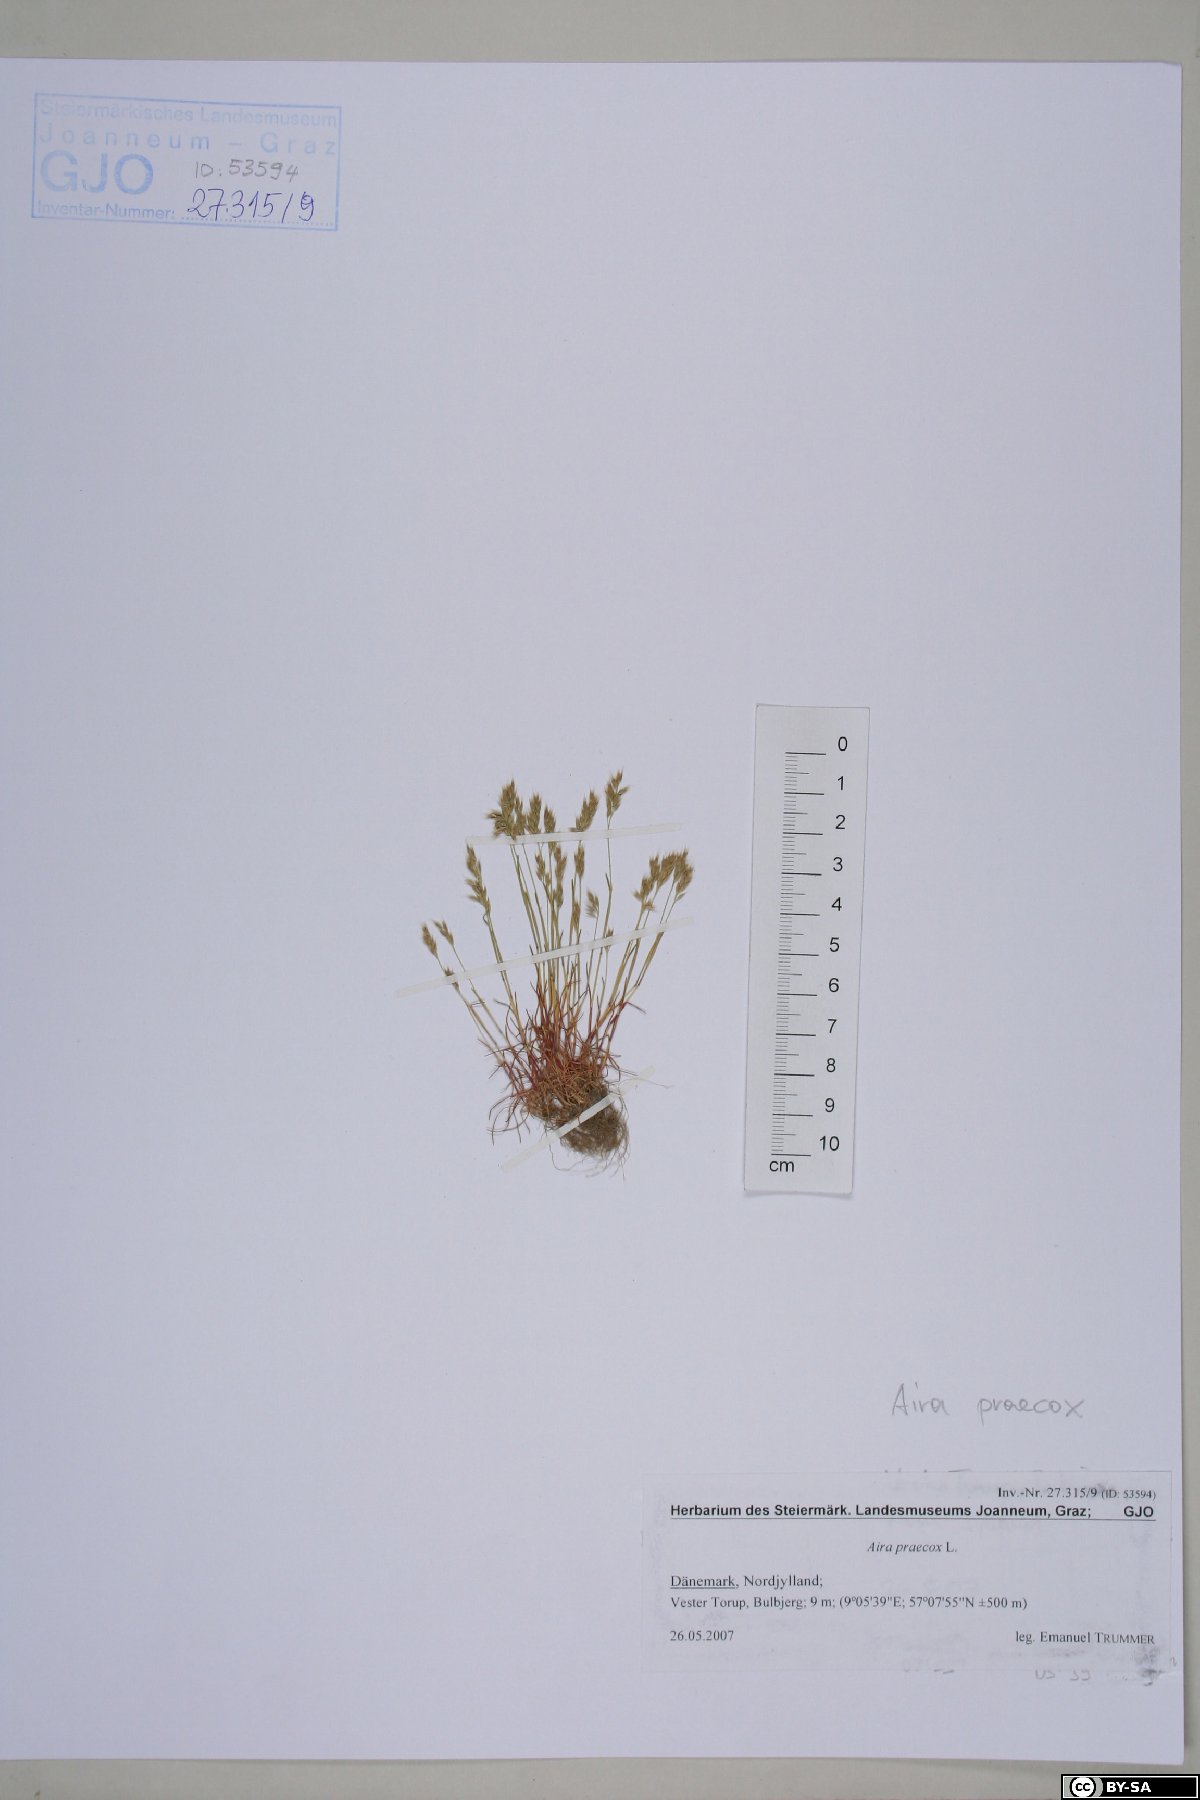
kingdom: Plantae
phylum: Tracheophyta
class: Liliopsida
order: Poales
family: Poaceae
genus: Aira
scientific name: Aira praecox
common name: Early hair-grass
